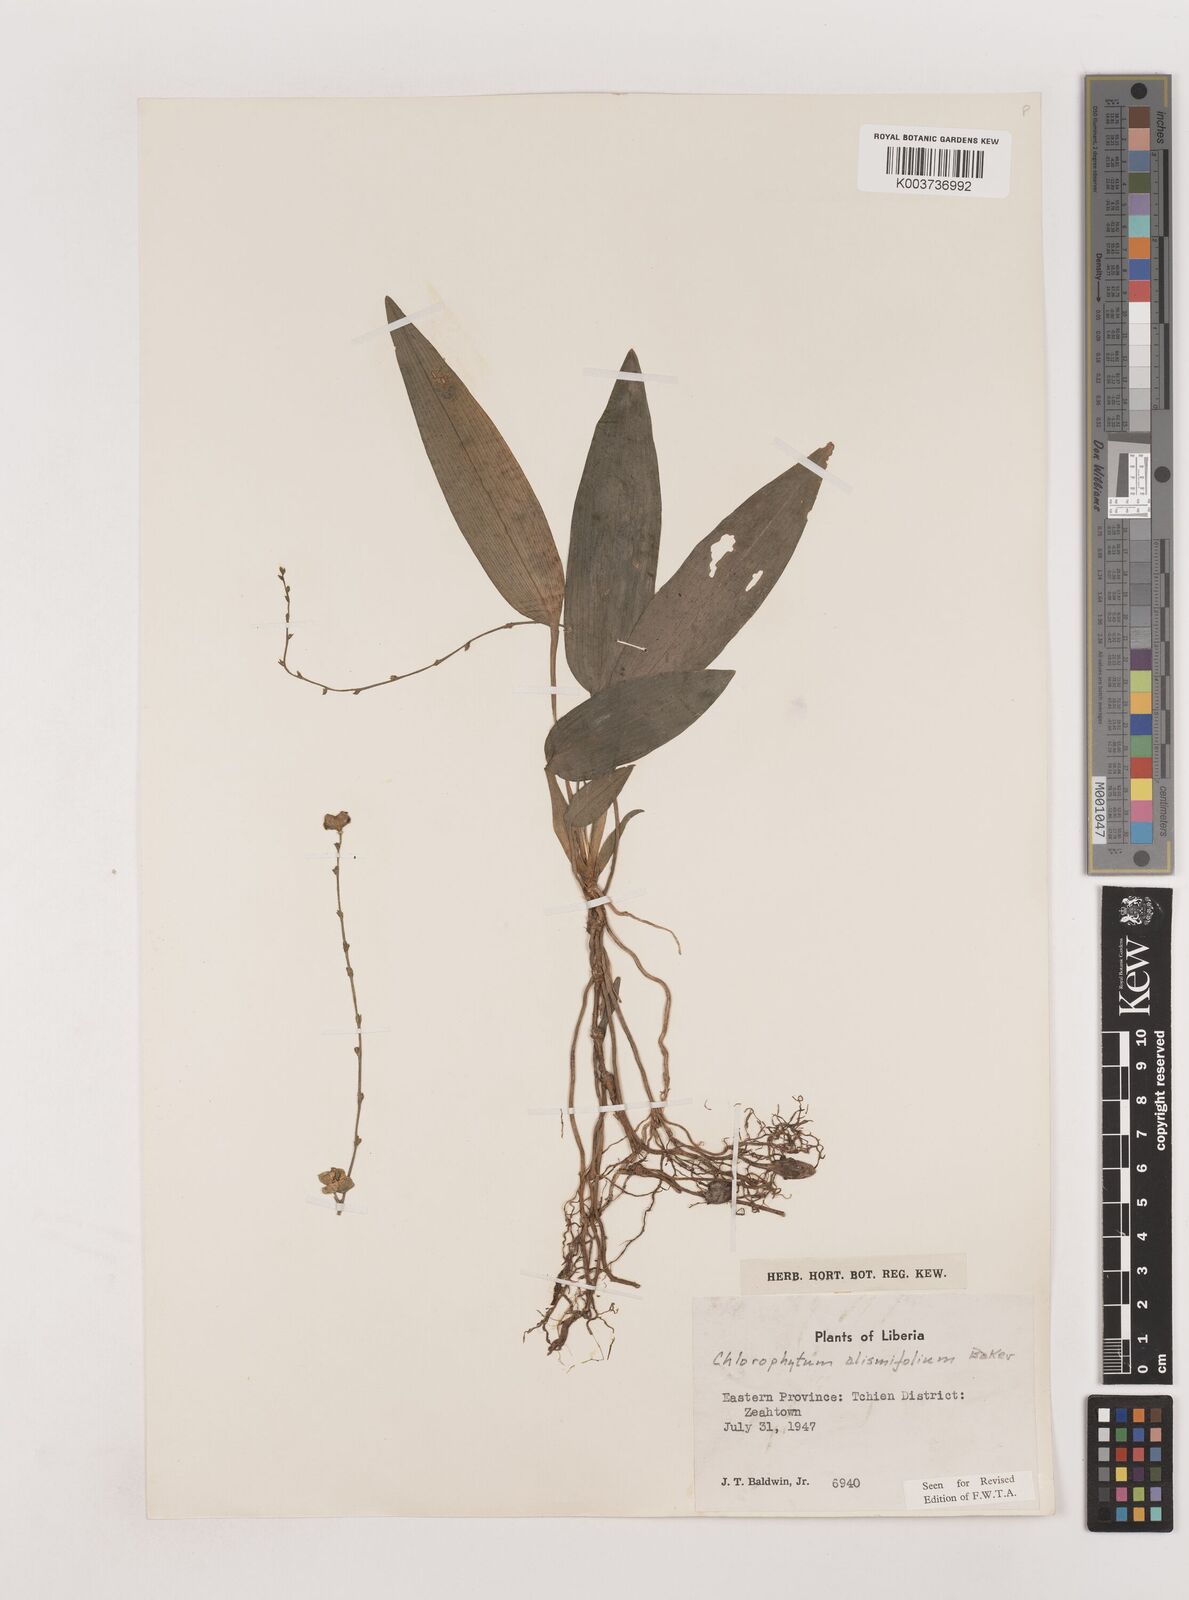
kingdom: Plantae
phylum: Tracheophyta
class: Liliopsida
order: Asparagales
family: Asparagaceae
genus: Chlorophytum
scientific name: Chlorophytum alismifolium
